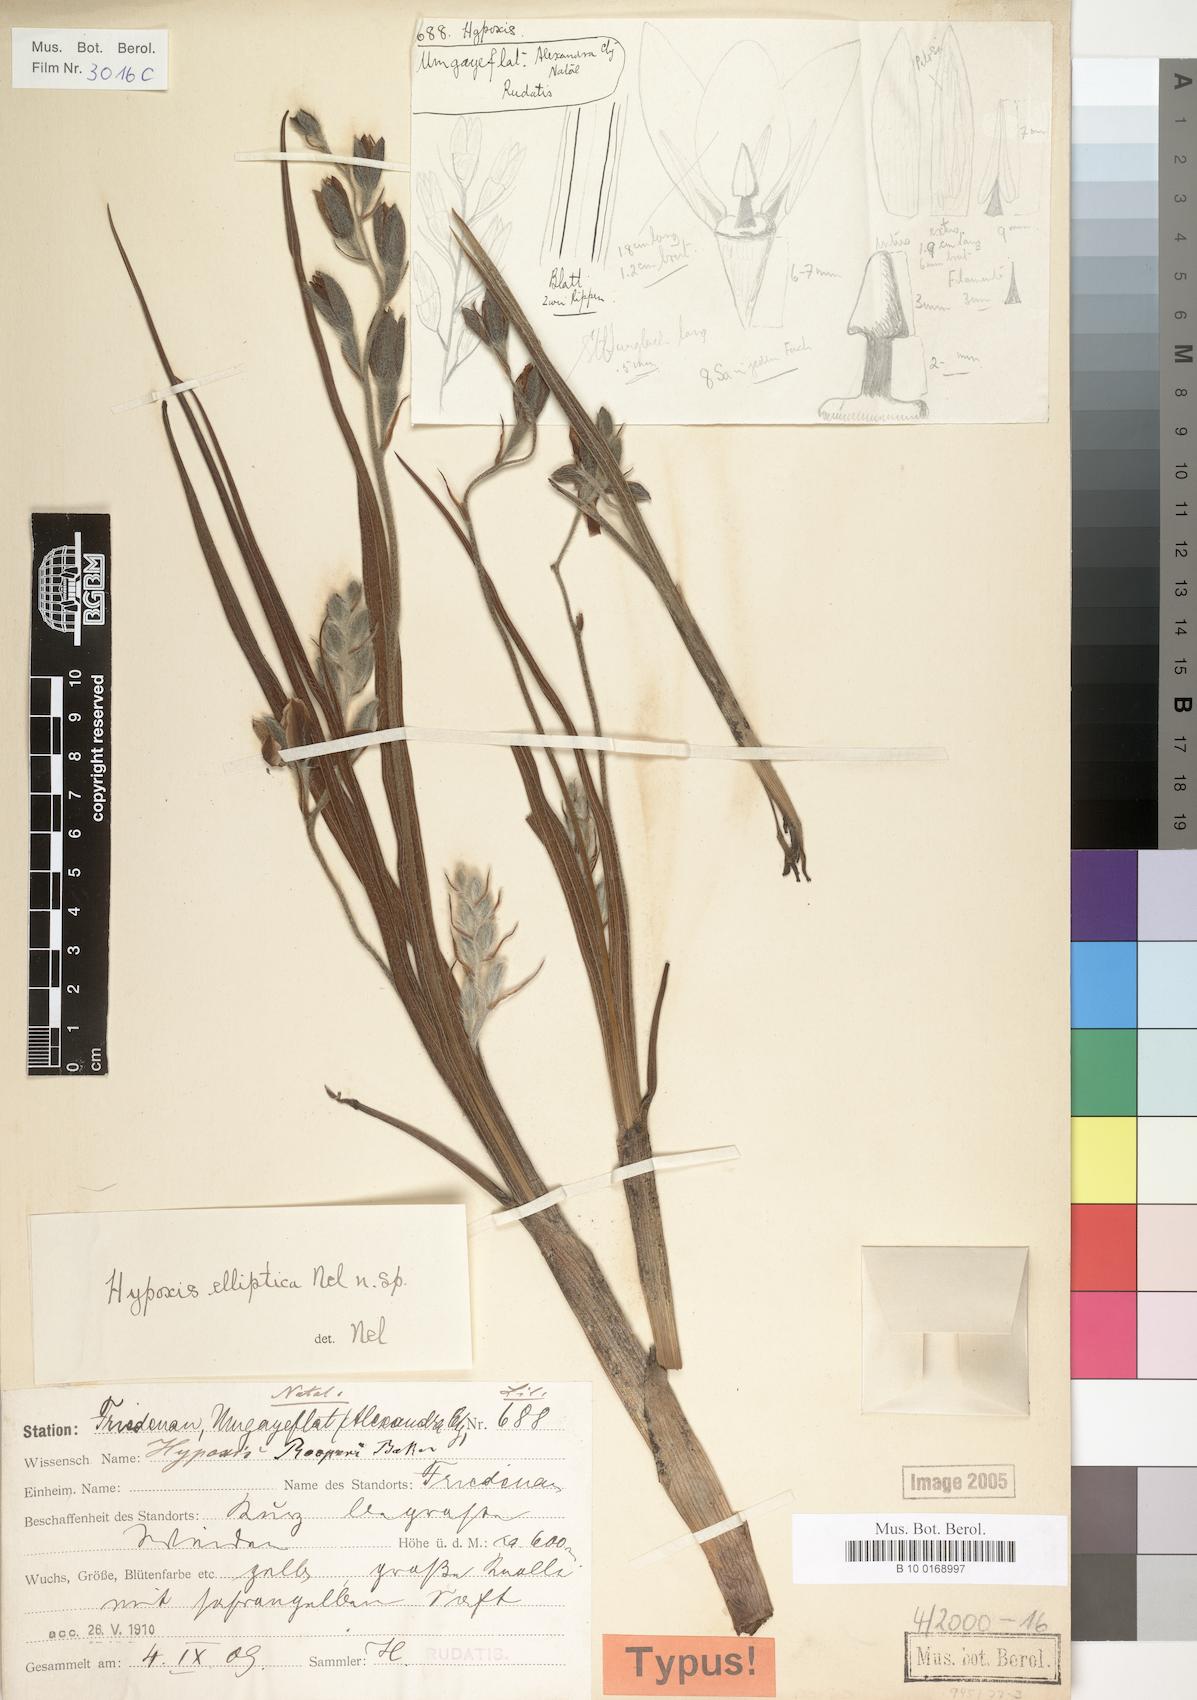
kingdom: Plantae
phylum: Tracheophyta
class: Liliopsida
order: Asparagales
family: Hypoxidaceae
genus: Hypoxis
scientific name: Hypoxis rigidula
